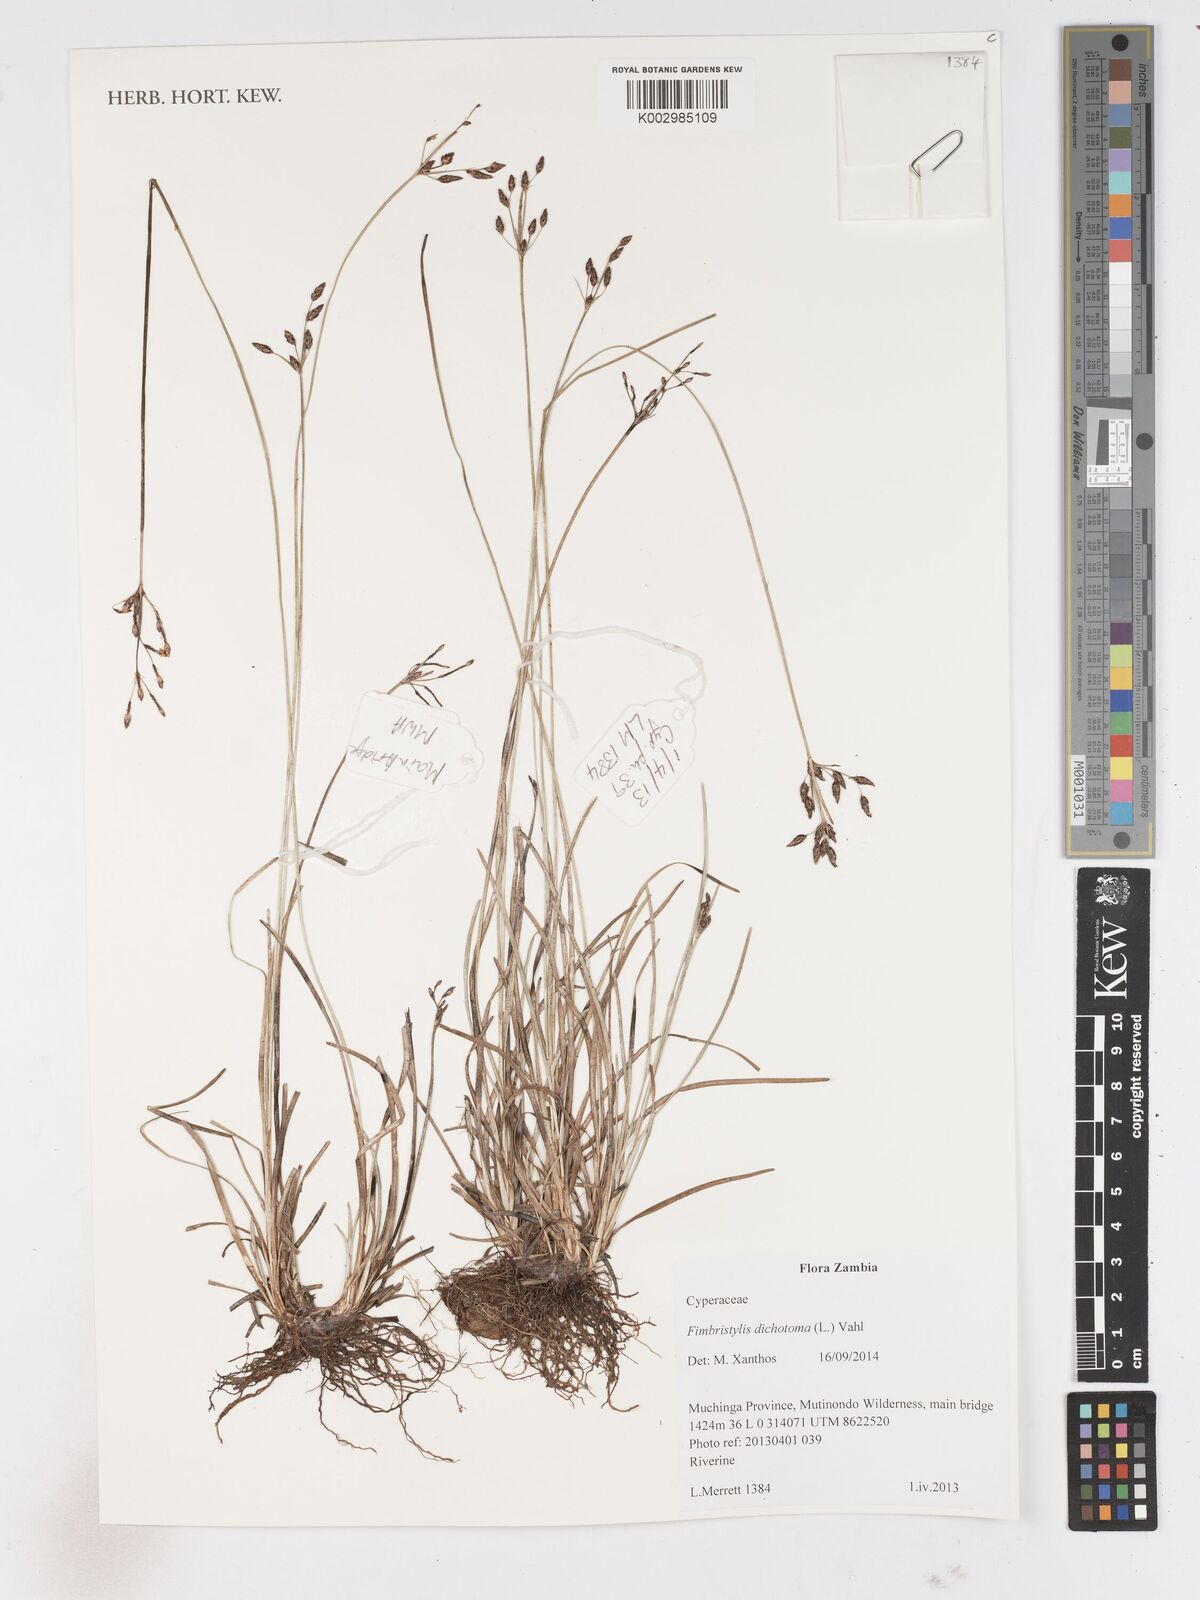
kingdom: Plantae
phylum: Tracheophyta
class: Liliopsida
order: Poales
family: Cyperaceae
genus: Fimbristylis
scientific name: Fimbristylis dichotoma
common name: Forked fimbry
